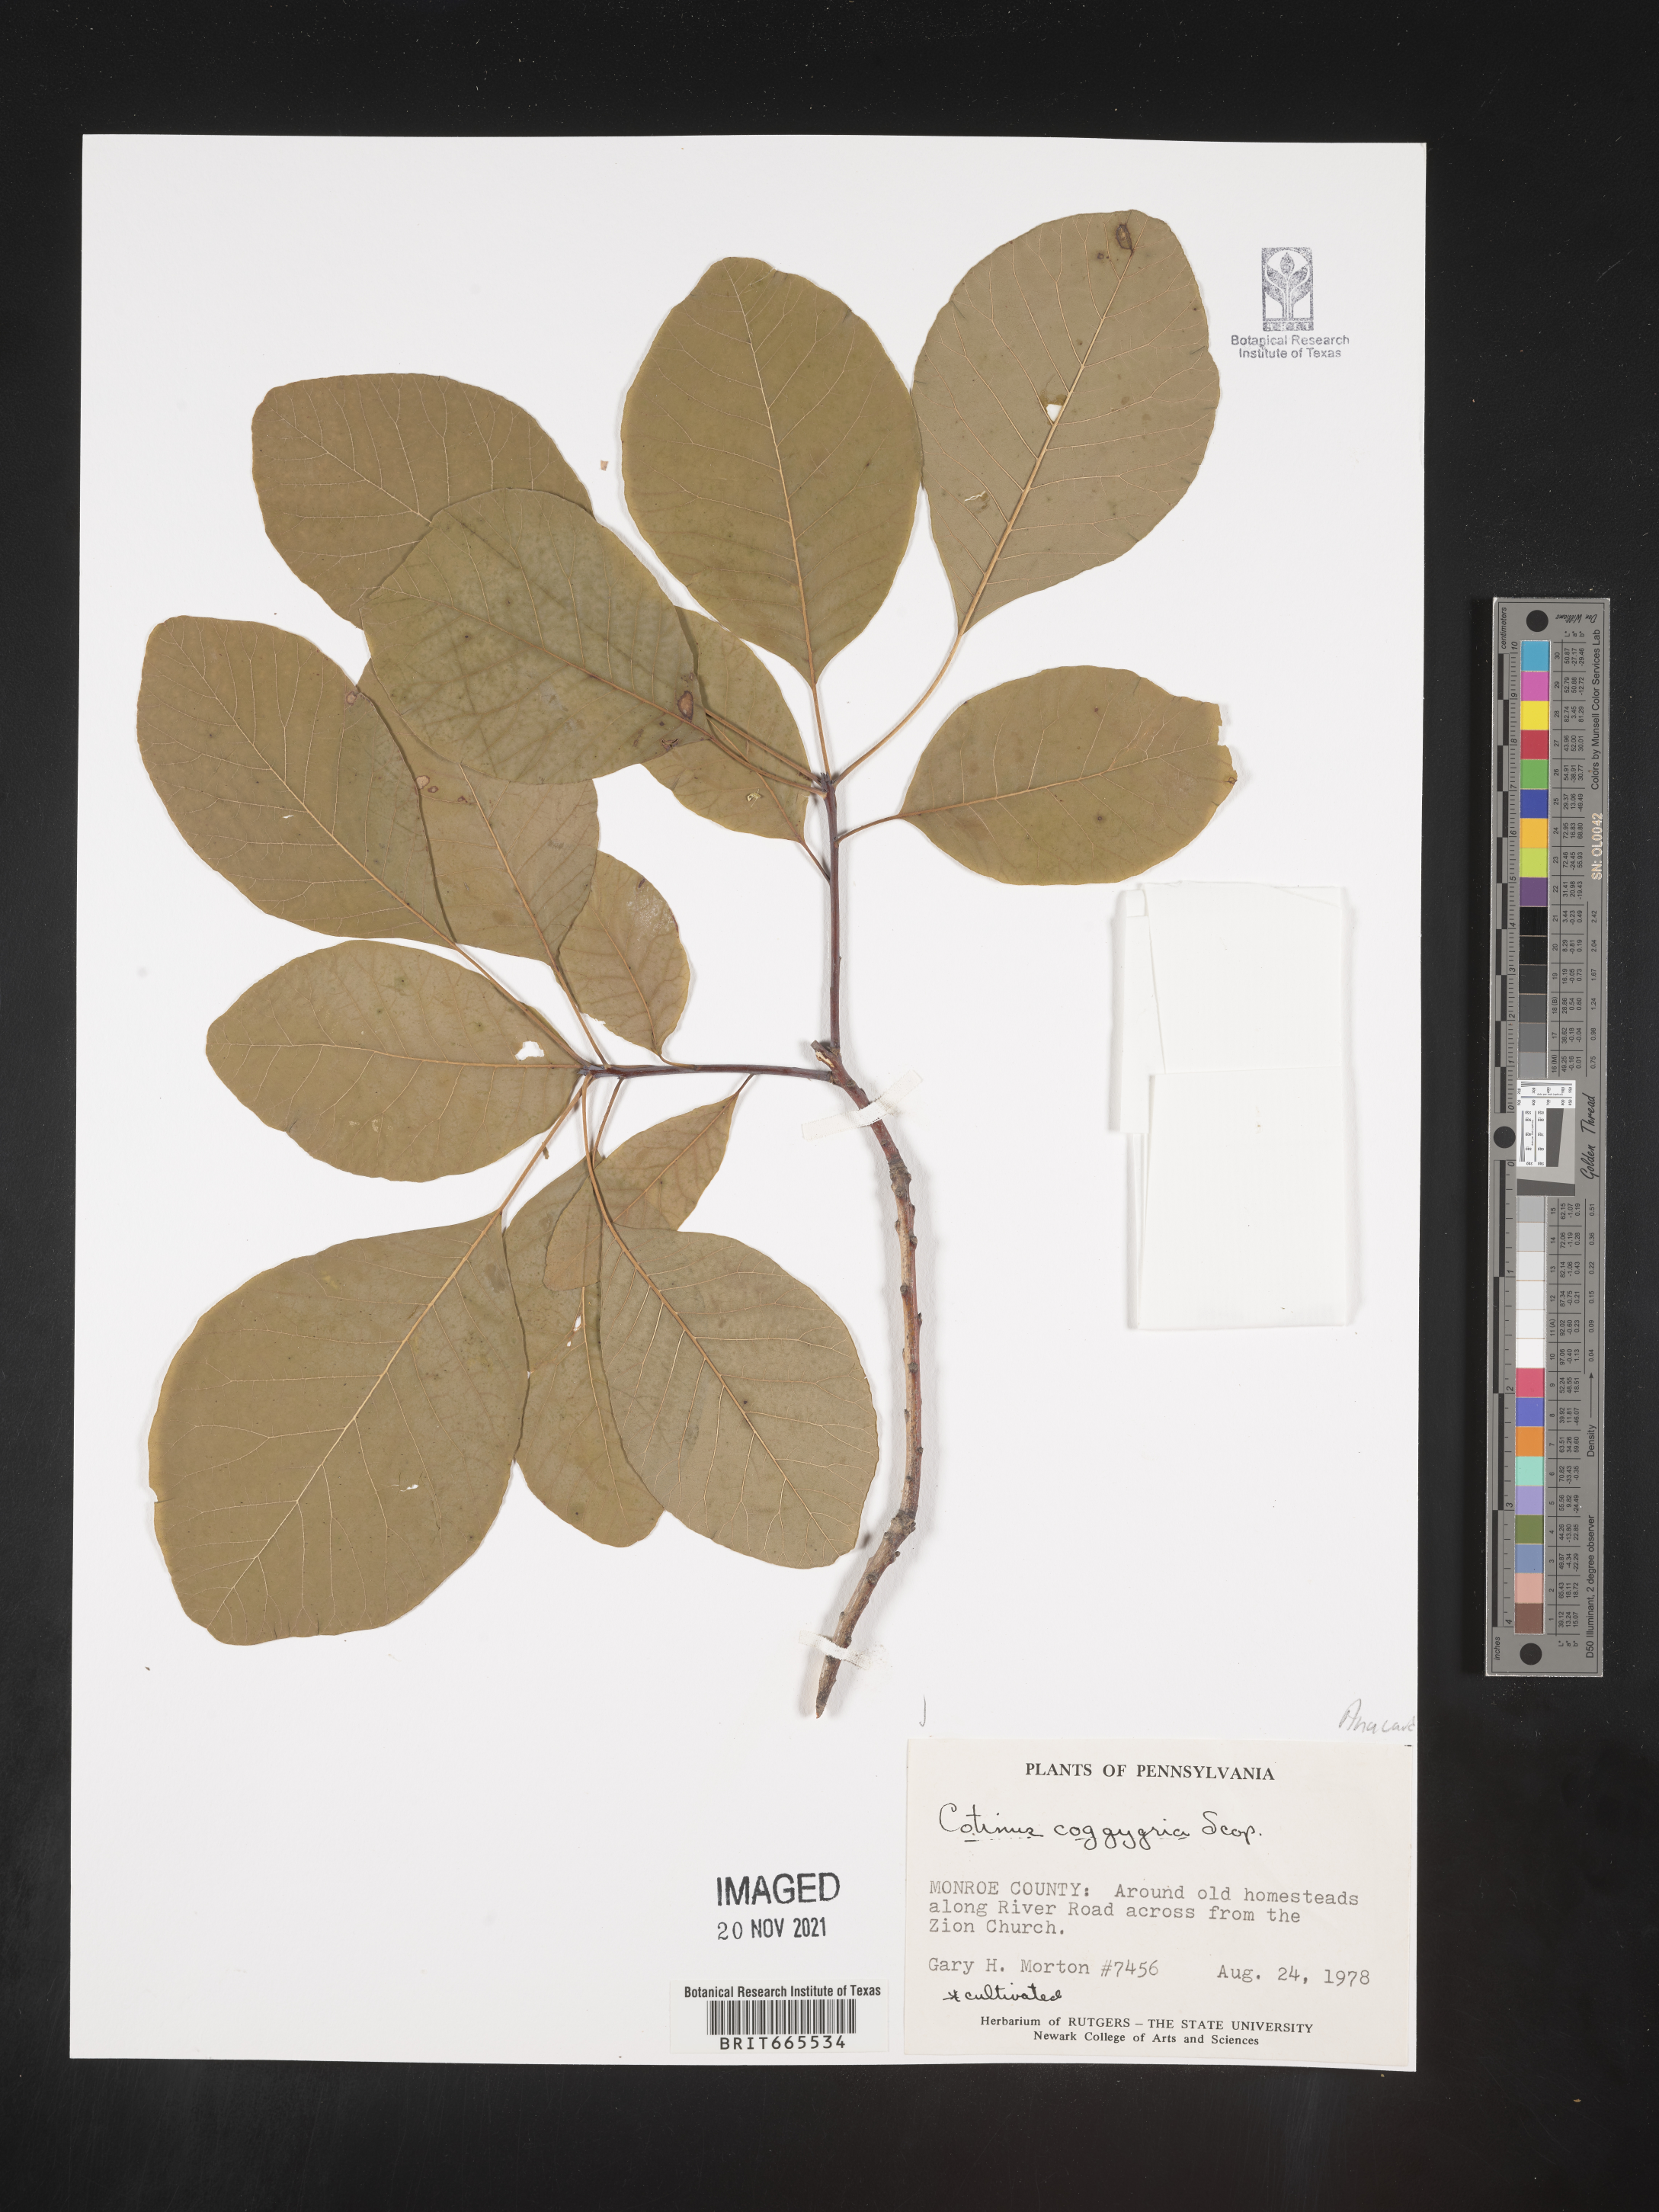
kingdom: Plantae
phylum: Tracheophyta
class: Magnoliopsida
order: Sapindales
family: Anacardiaceae
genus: Cotinus
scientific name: Cotinus coggygria
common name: Smoke-tree
